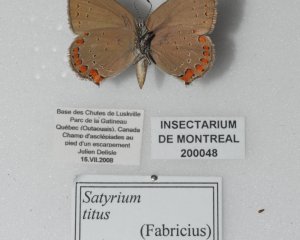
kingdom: Animalia
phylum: Arthropoda
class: Insecta
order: Lepidoptera
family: Lycaenidae
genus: Harkenclenus
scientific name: Harkenclenus titus
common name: Coral Hairstreak
